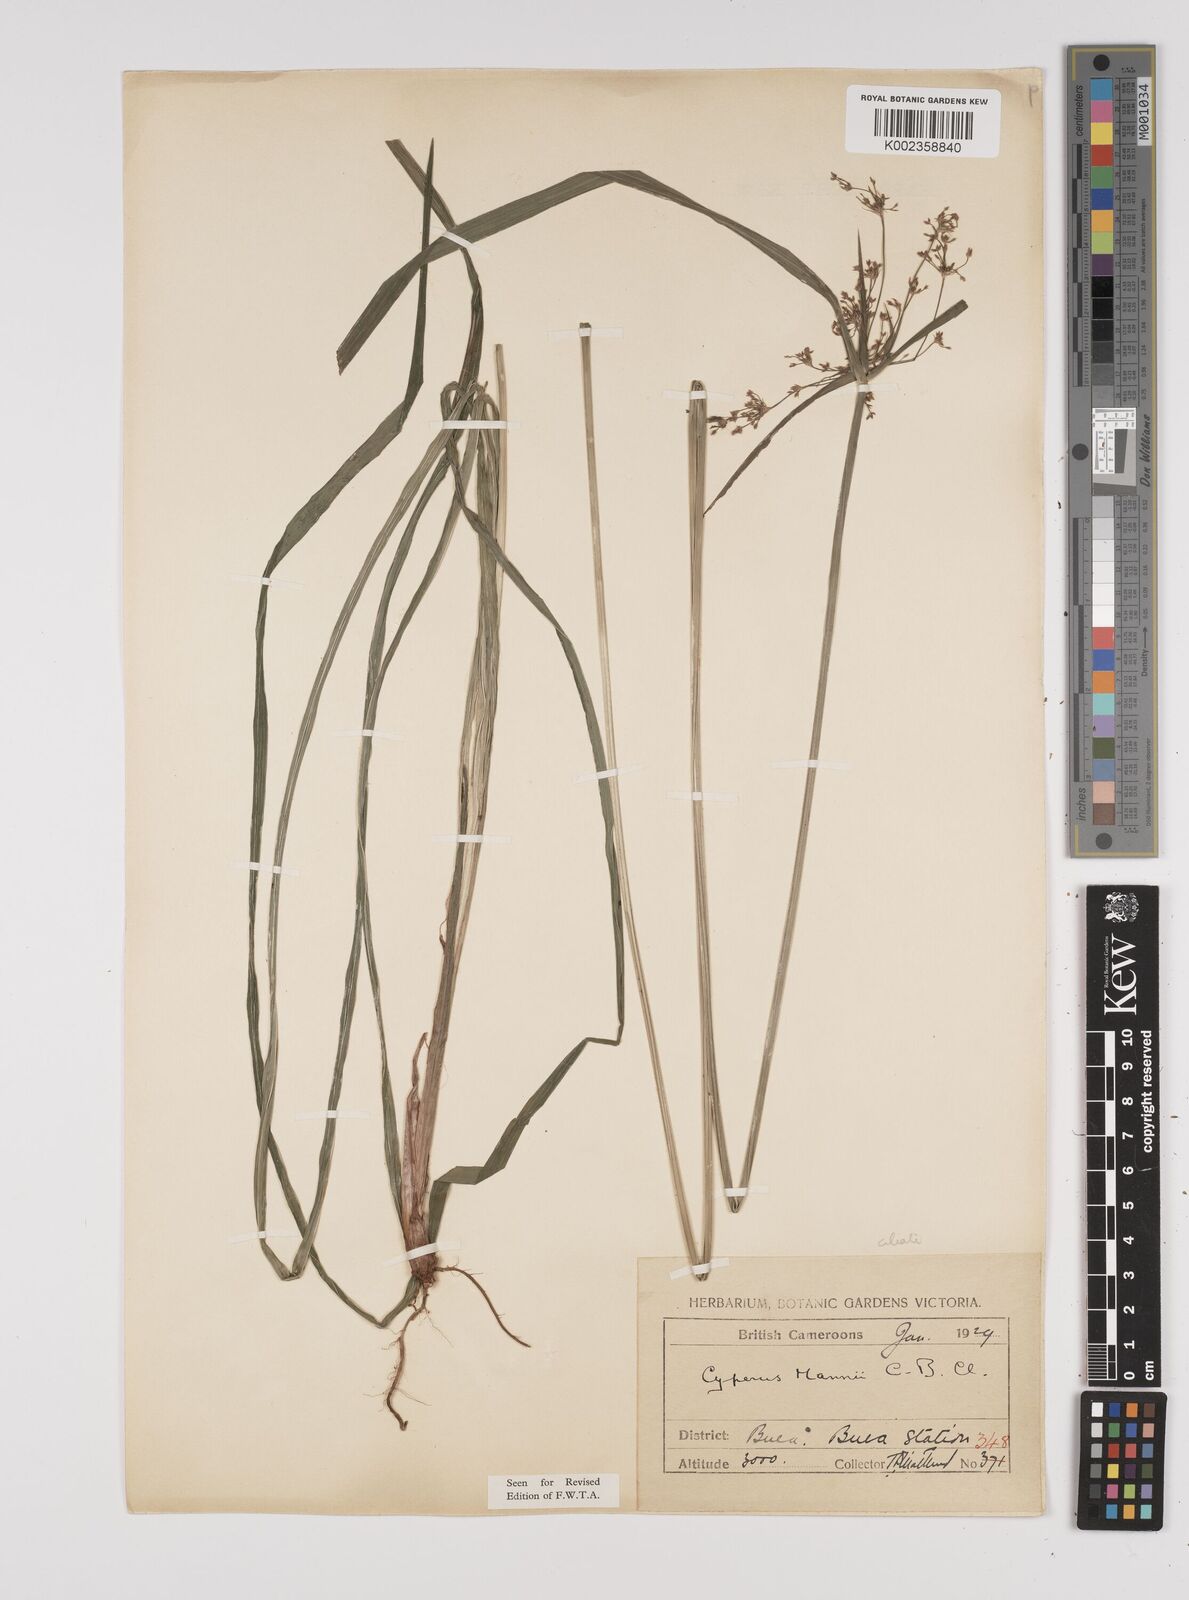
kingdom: Plantae
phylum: Tracheophyta
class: Liliopsida
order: Poales
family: Cyperaceae
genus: Cyperus
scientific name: Cyperus baronii
